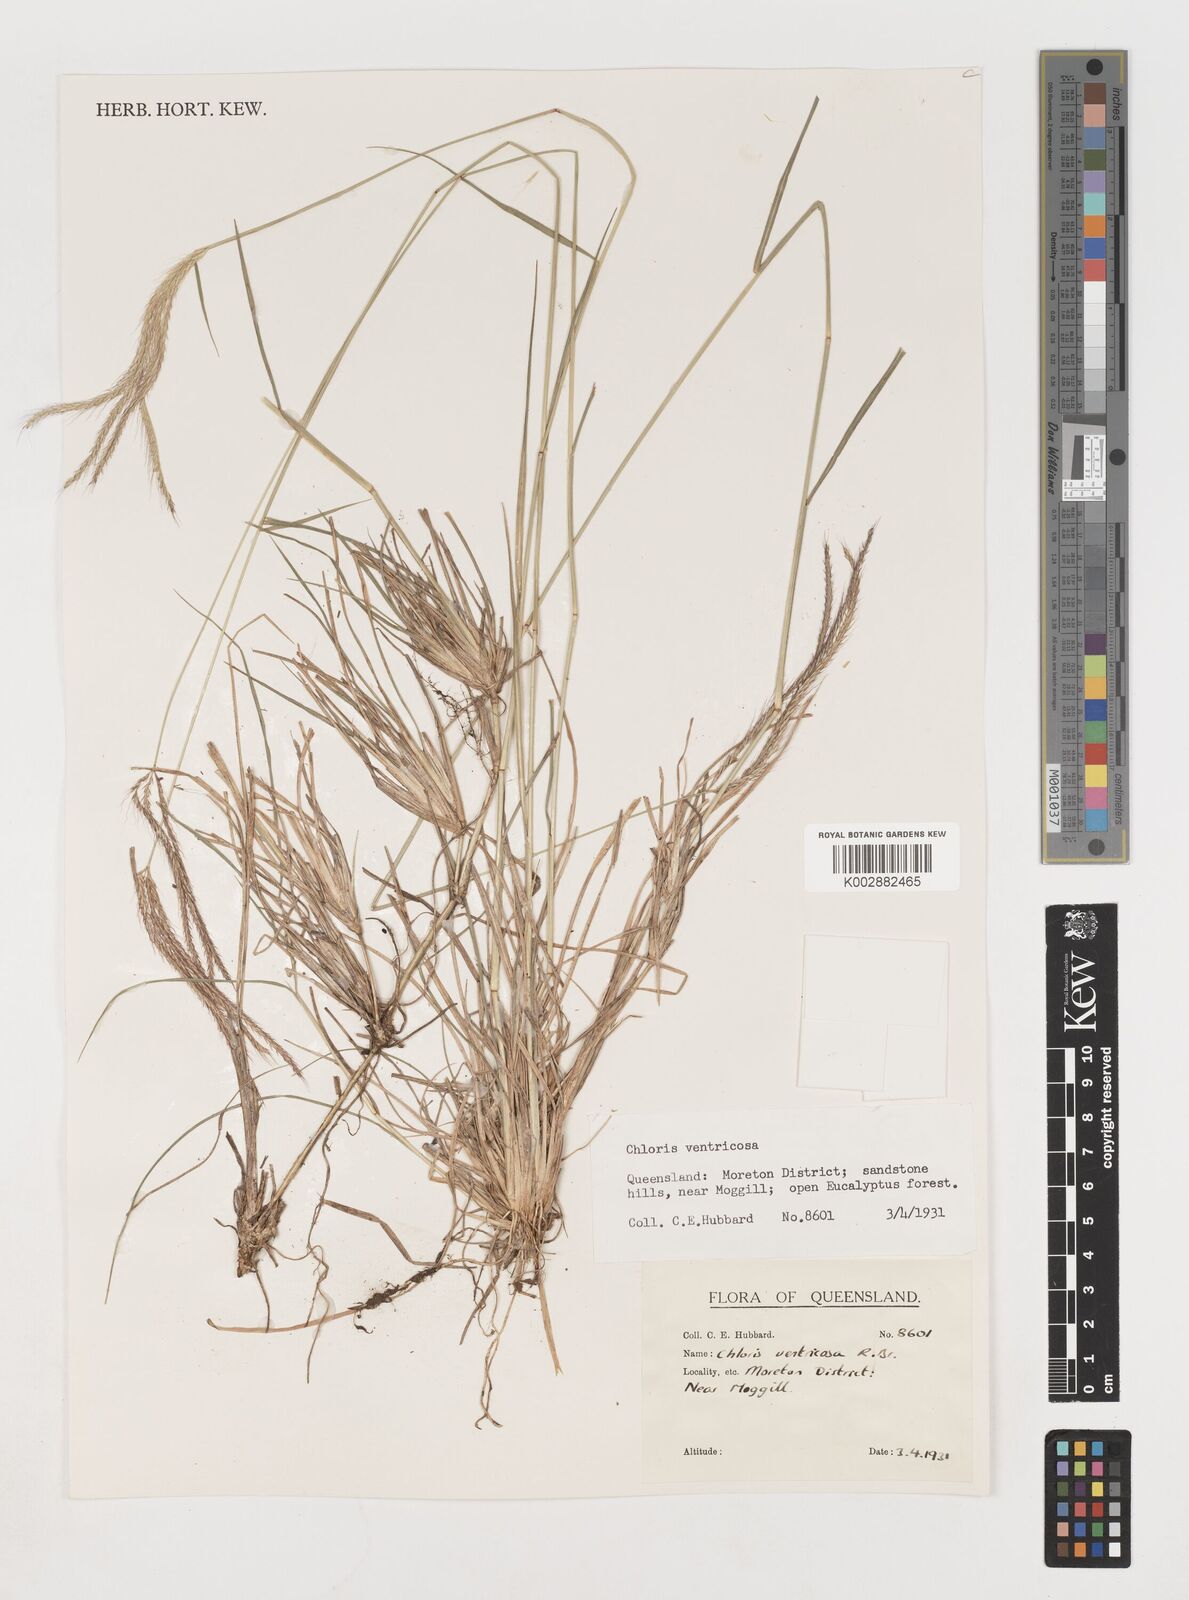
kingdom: Plantae
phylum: Tracheophyta
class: Liliopsida
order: Poales
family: Poaceae
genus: Chloris
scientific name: Chloris ventricosa
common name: Australian windmill grass
